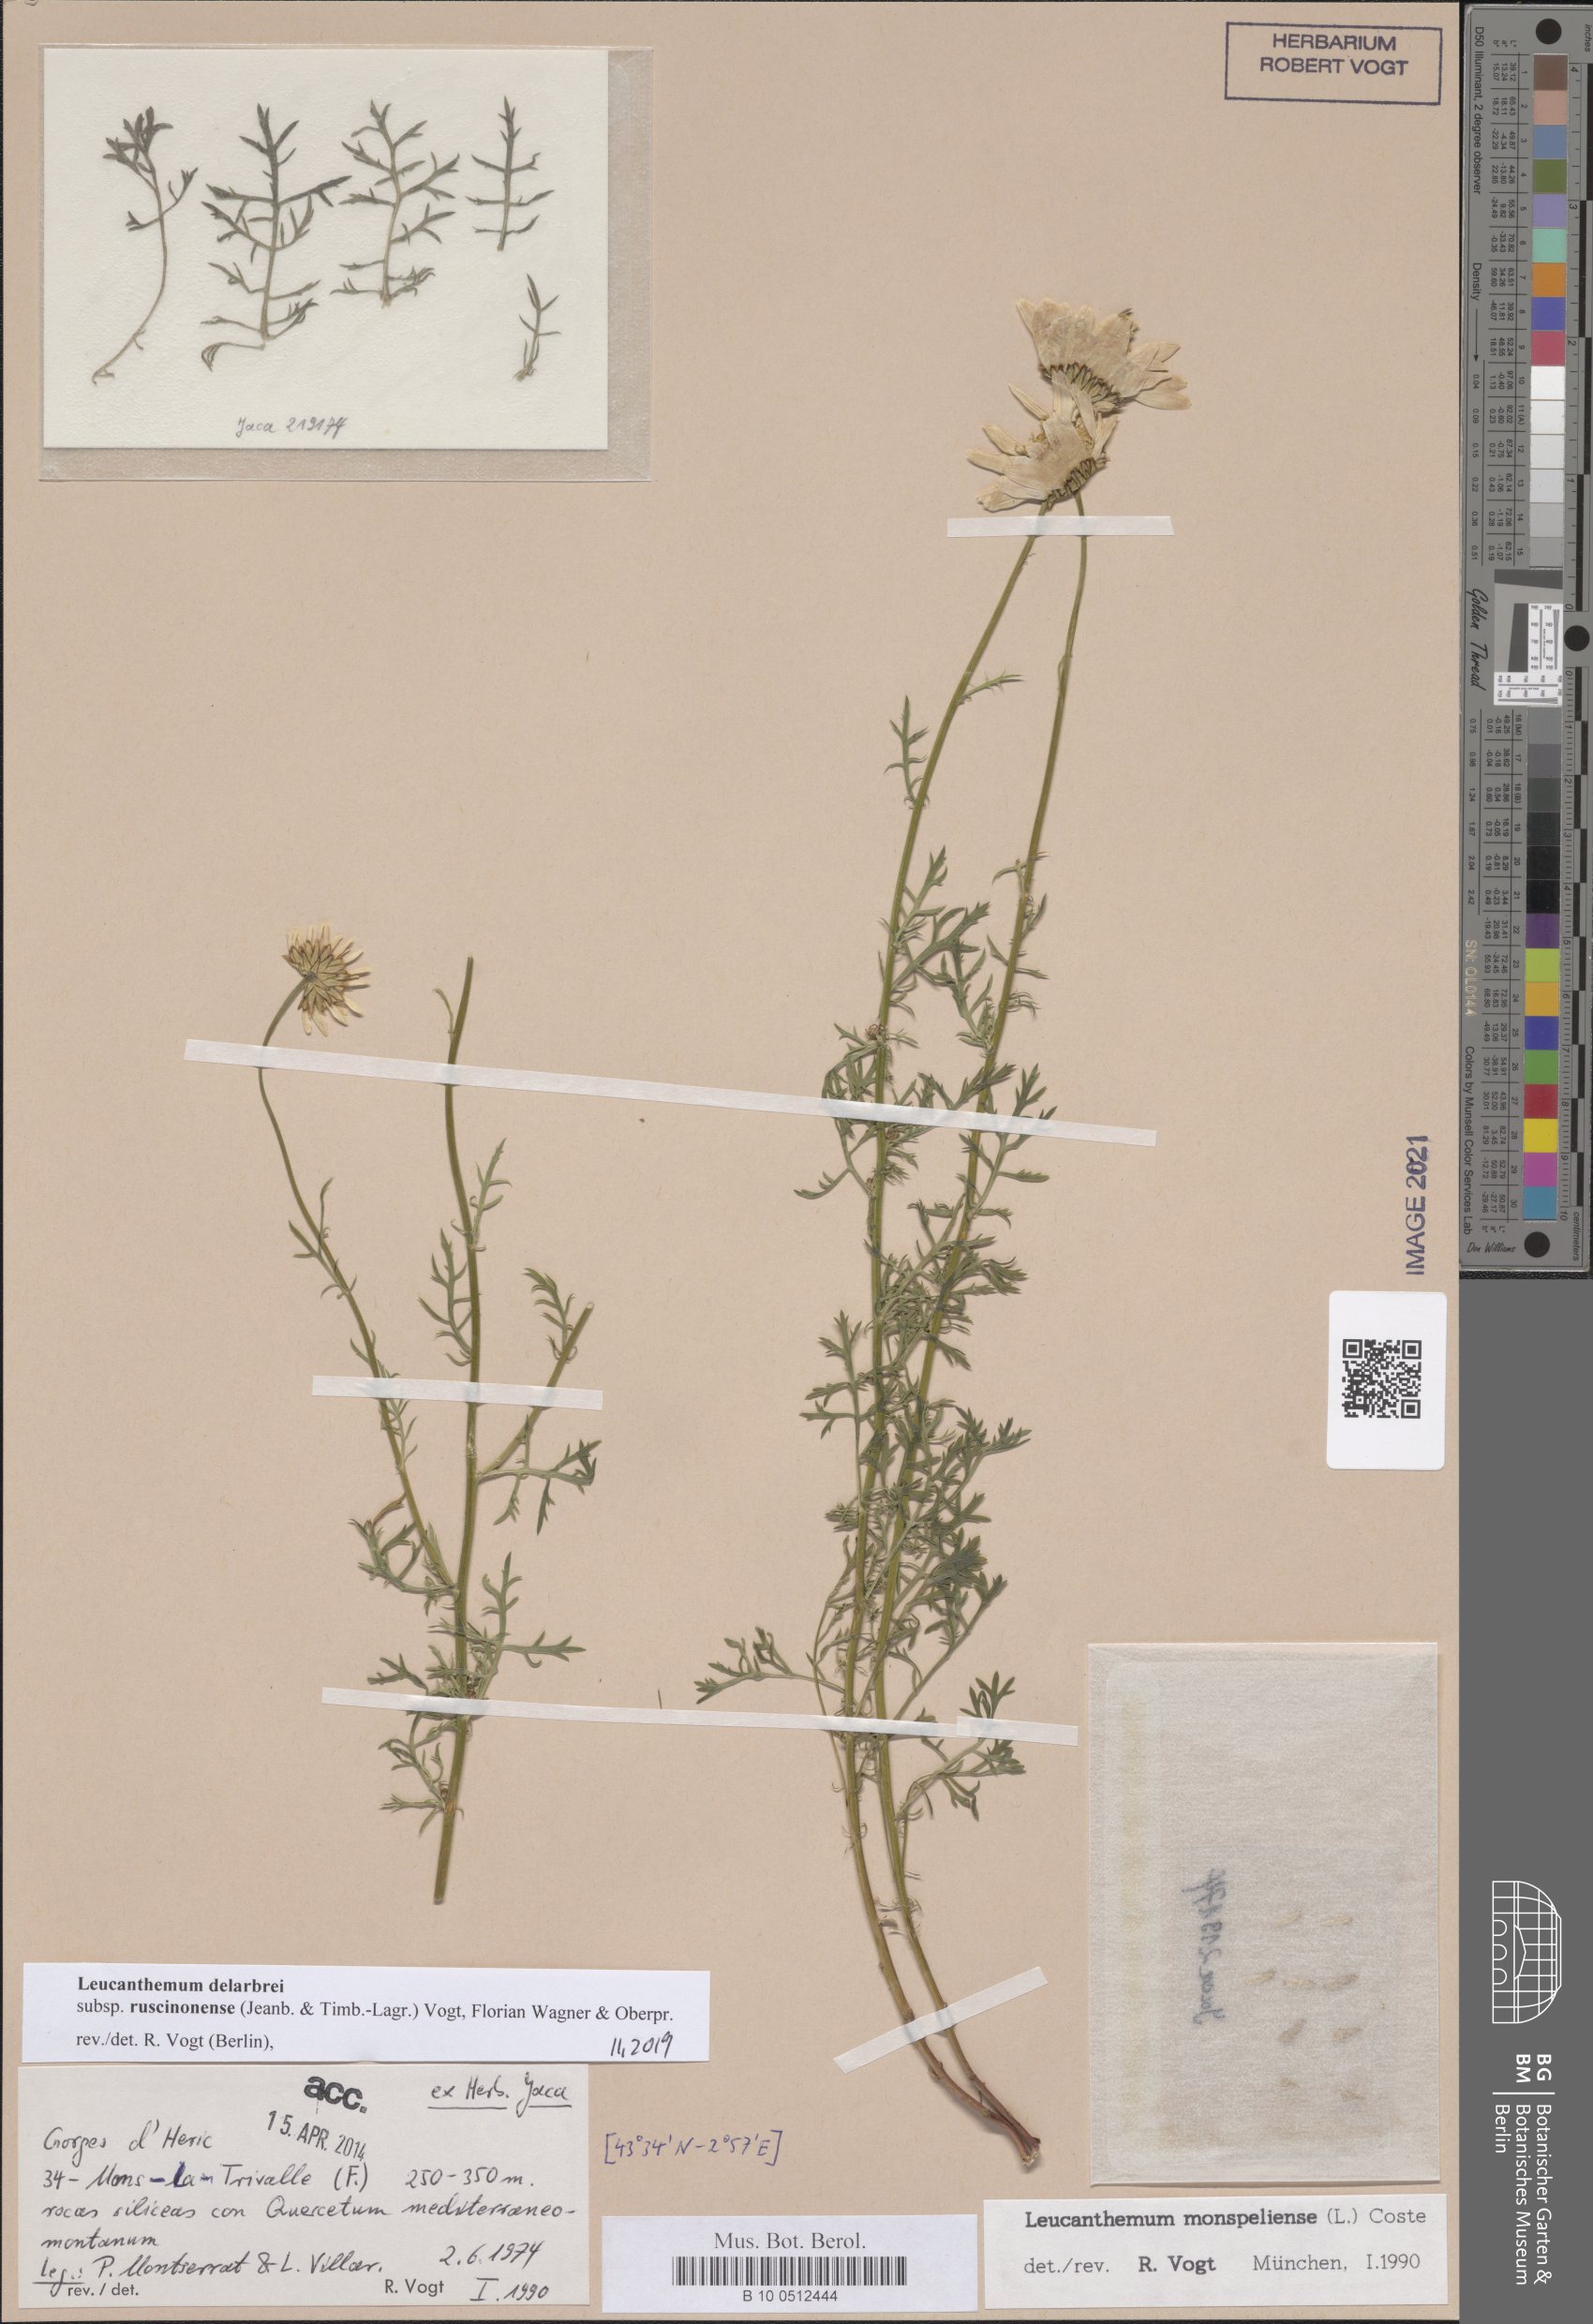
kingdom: Plantae
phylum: Tracheophyta
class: Magnoliopsida
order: Asterales
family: Asteraceae
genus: Leucanthemum
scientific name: Leucanthemum delarbrei
